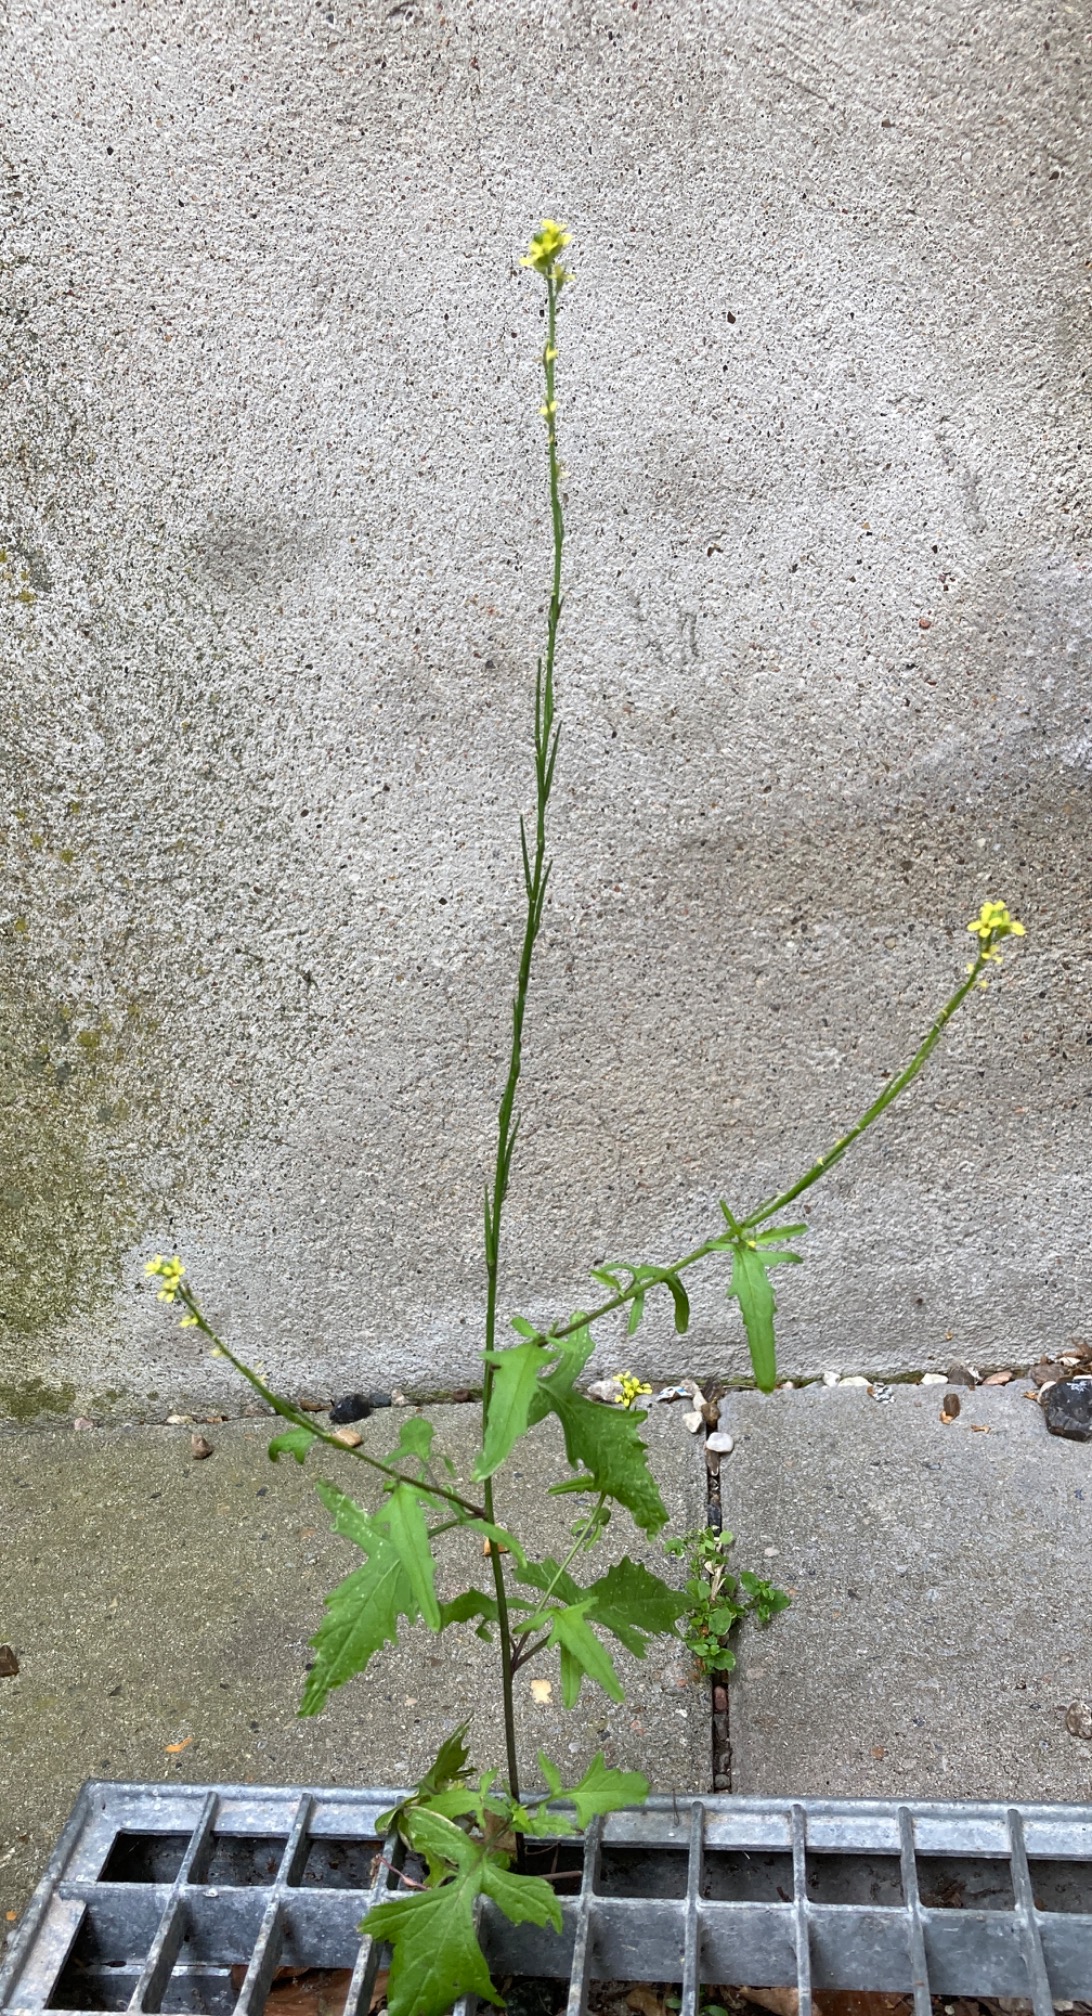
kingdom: Plantae
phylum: Tracheophyta
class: Magnoliopsida
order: Brassicales
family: Brassicaceae
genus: Sisymbrium
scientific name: Sisymbrium officinale
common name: Rank vejsennep
